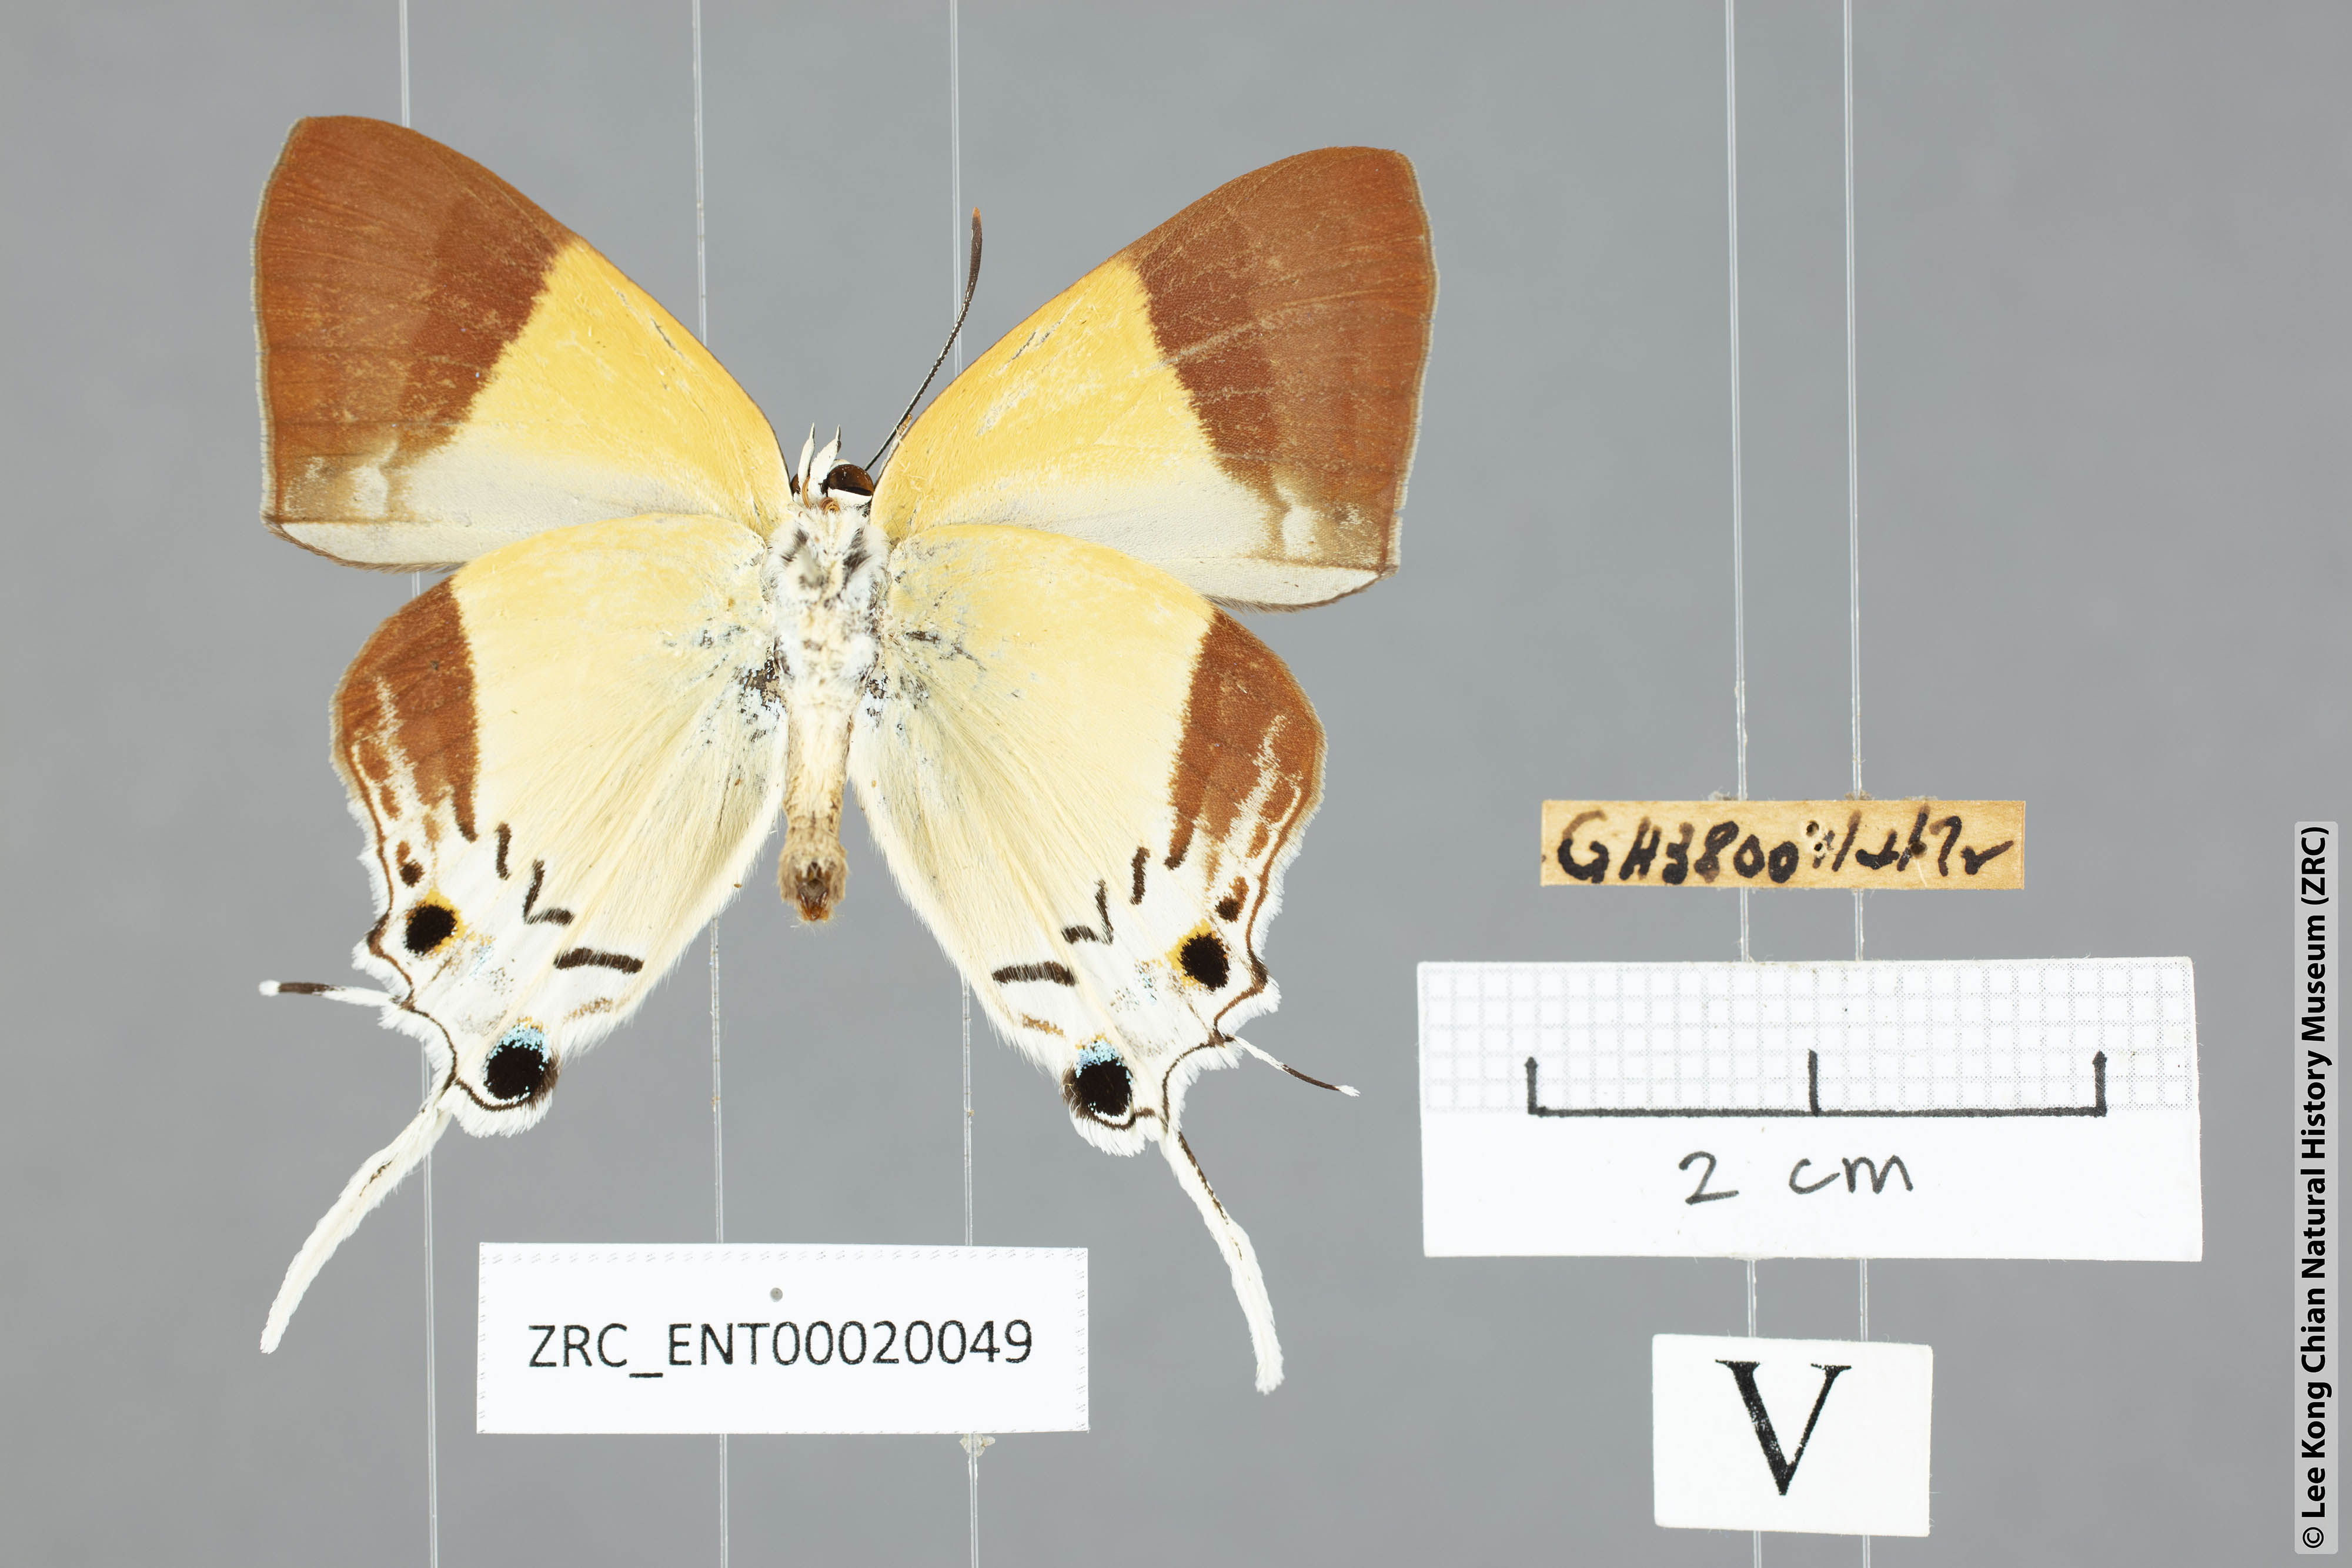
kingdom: Animalia
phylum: Arthropoda
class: Insecta
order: Lepidoptera
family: Lycaenidae
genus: Charana
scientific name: Charana mandarinus
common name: Mandarin blue
